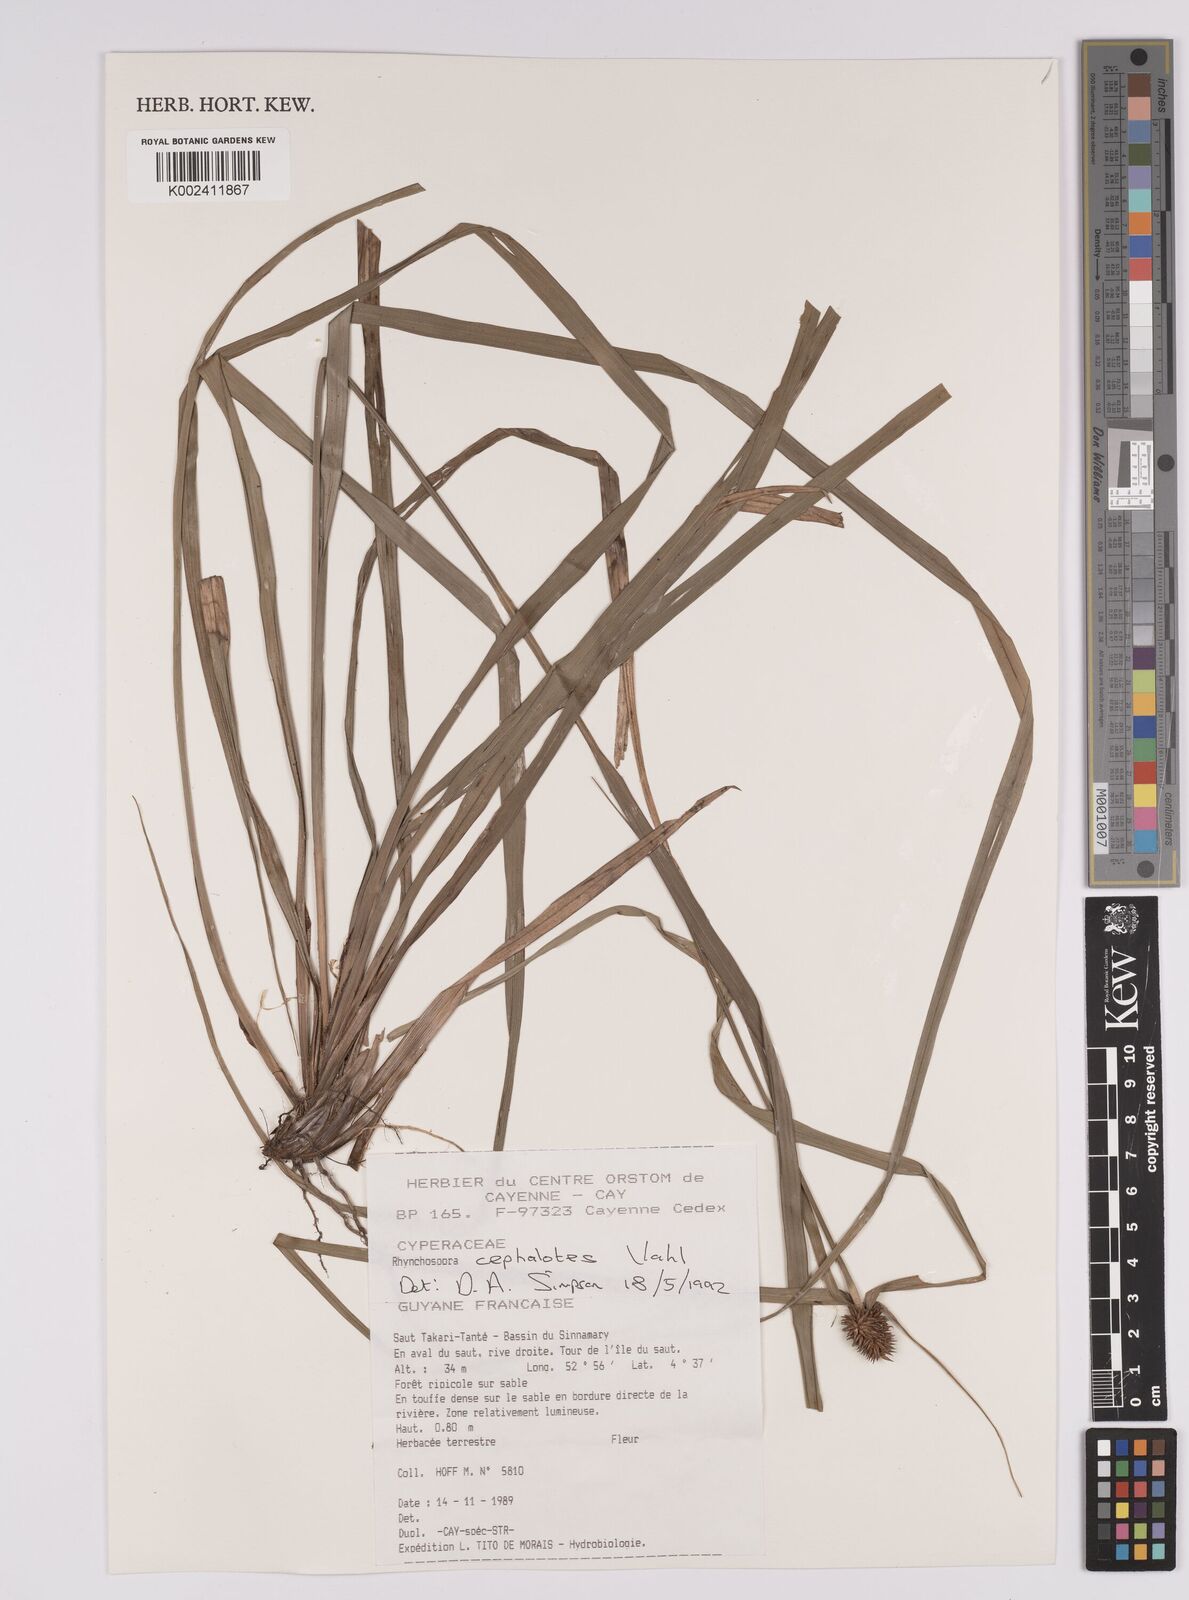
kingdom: Plantae
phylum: Tracheophyta
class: Liliopsida
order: Poales
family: Cyperaceae
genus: Rhynchospora
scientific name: Rhynchospora cephalotes
